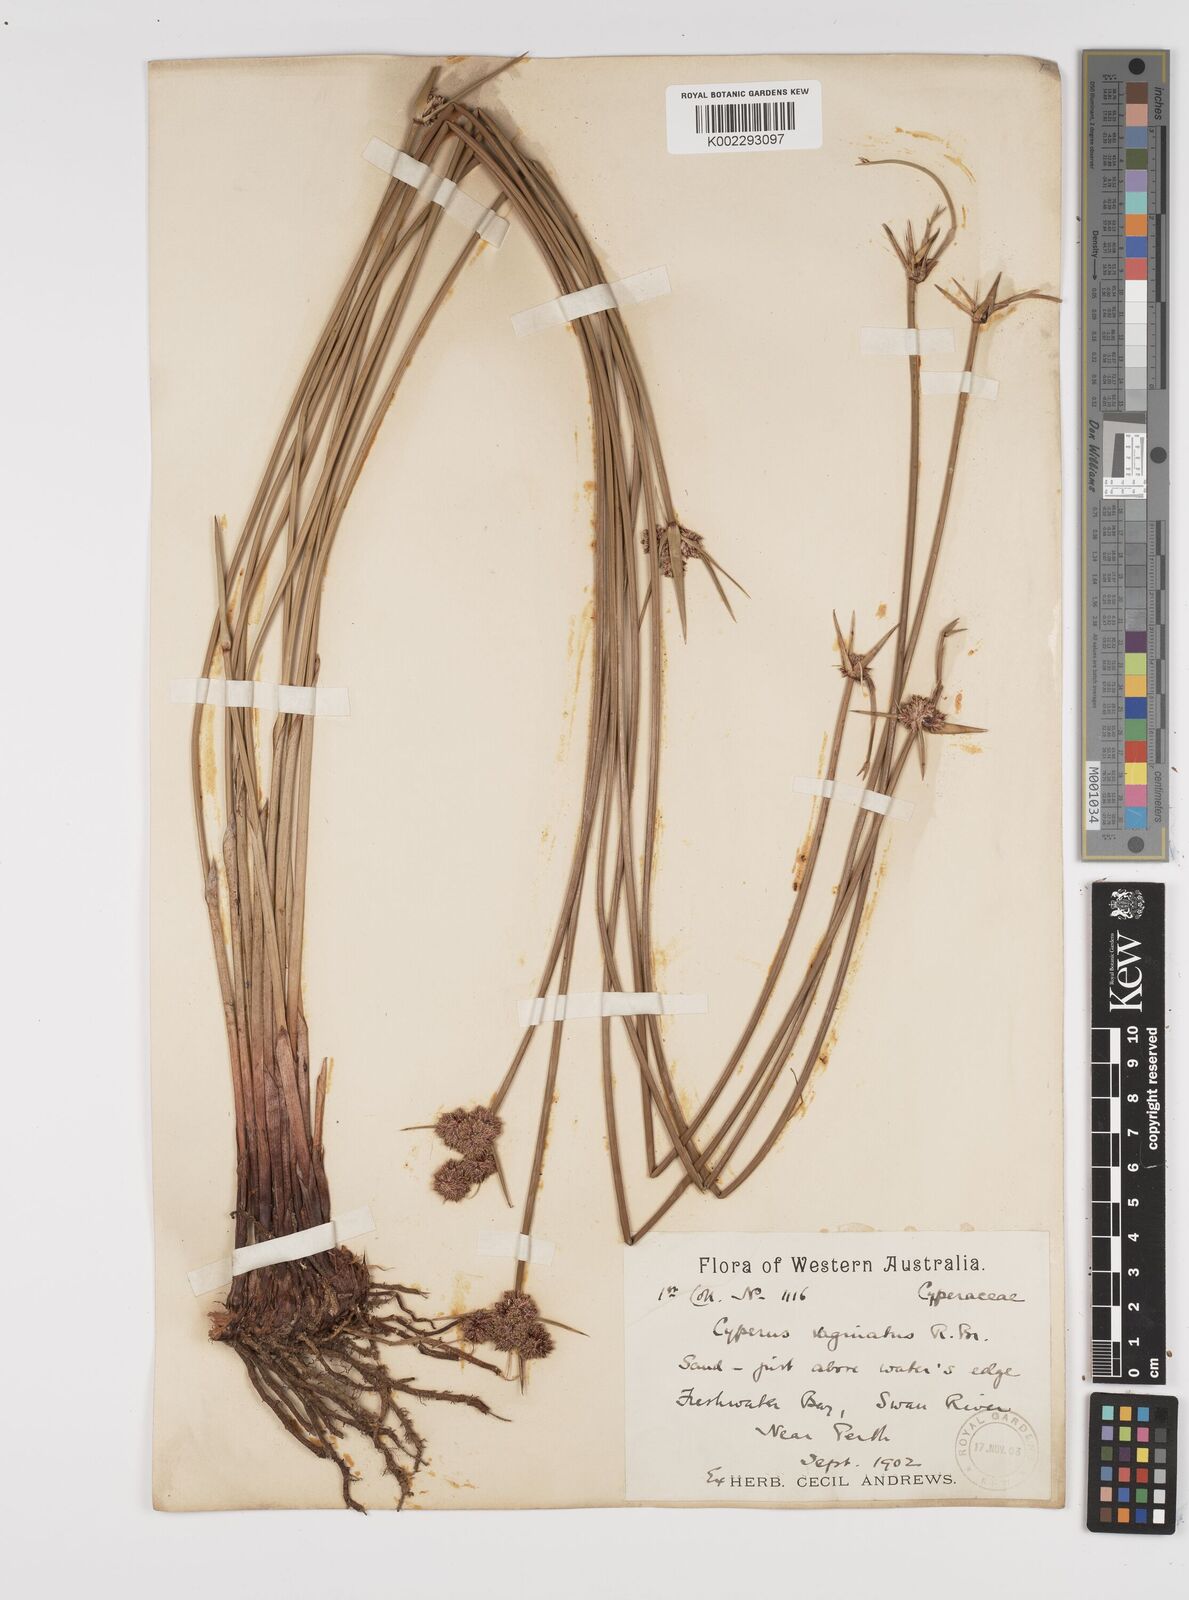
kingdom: Plantae
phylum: Tracheophyta
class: Liliopsida
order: Poales
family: Cyperaceae
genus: Cyperus
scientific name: Cyperus gymnocaulos
